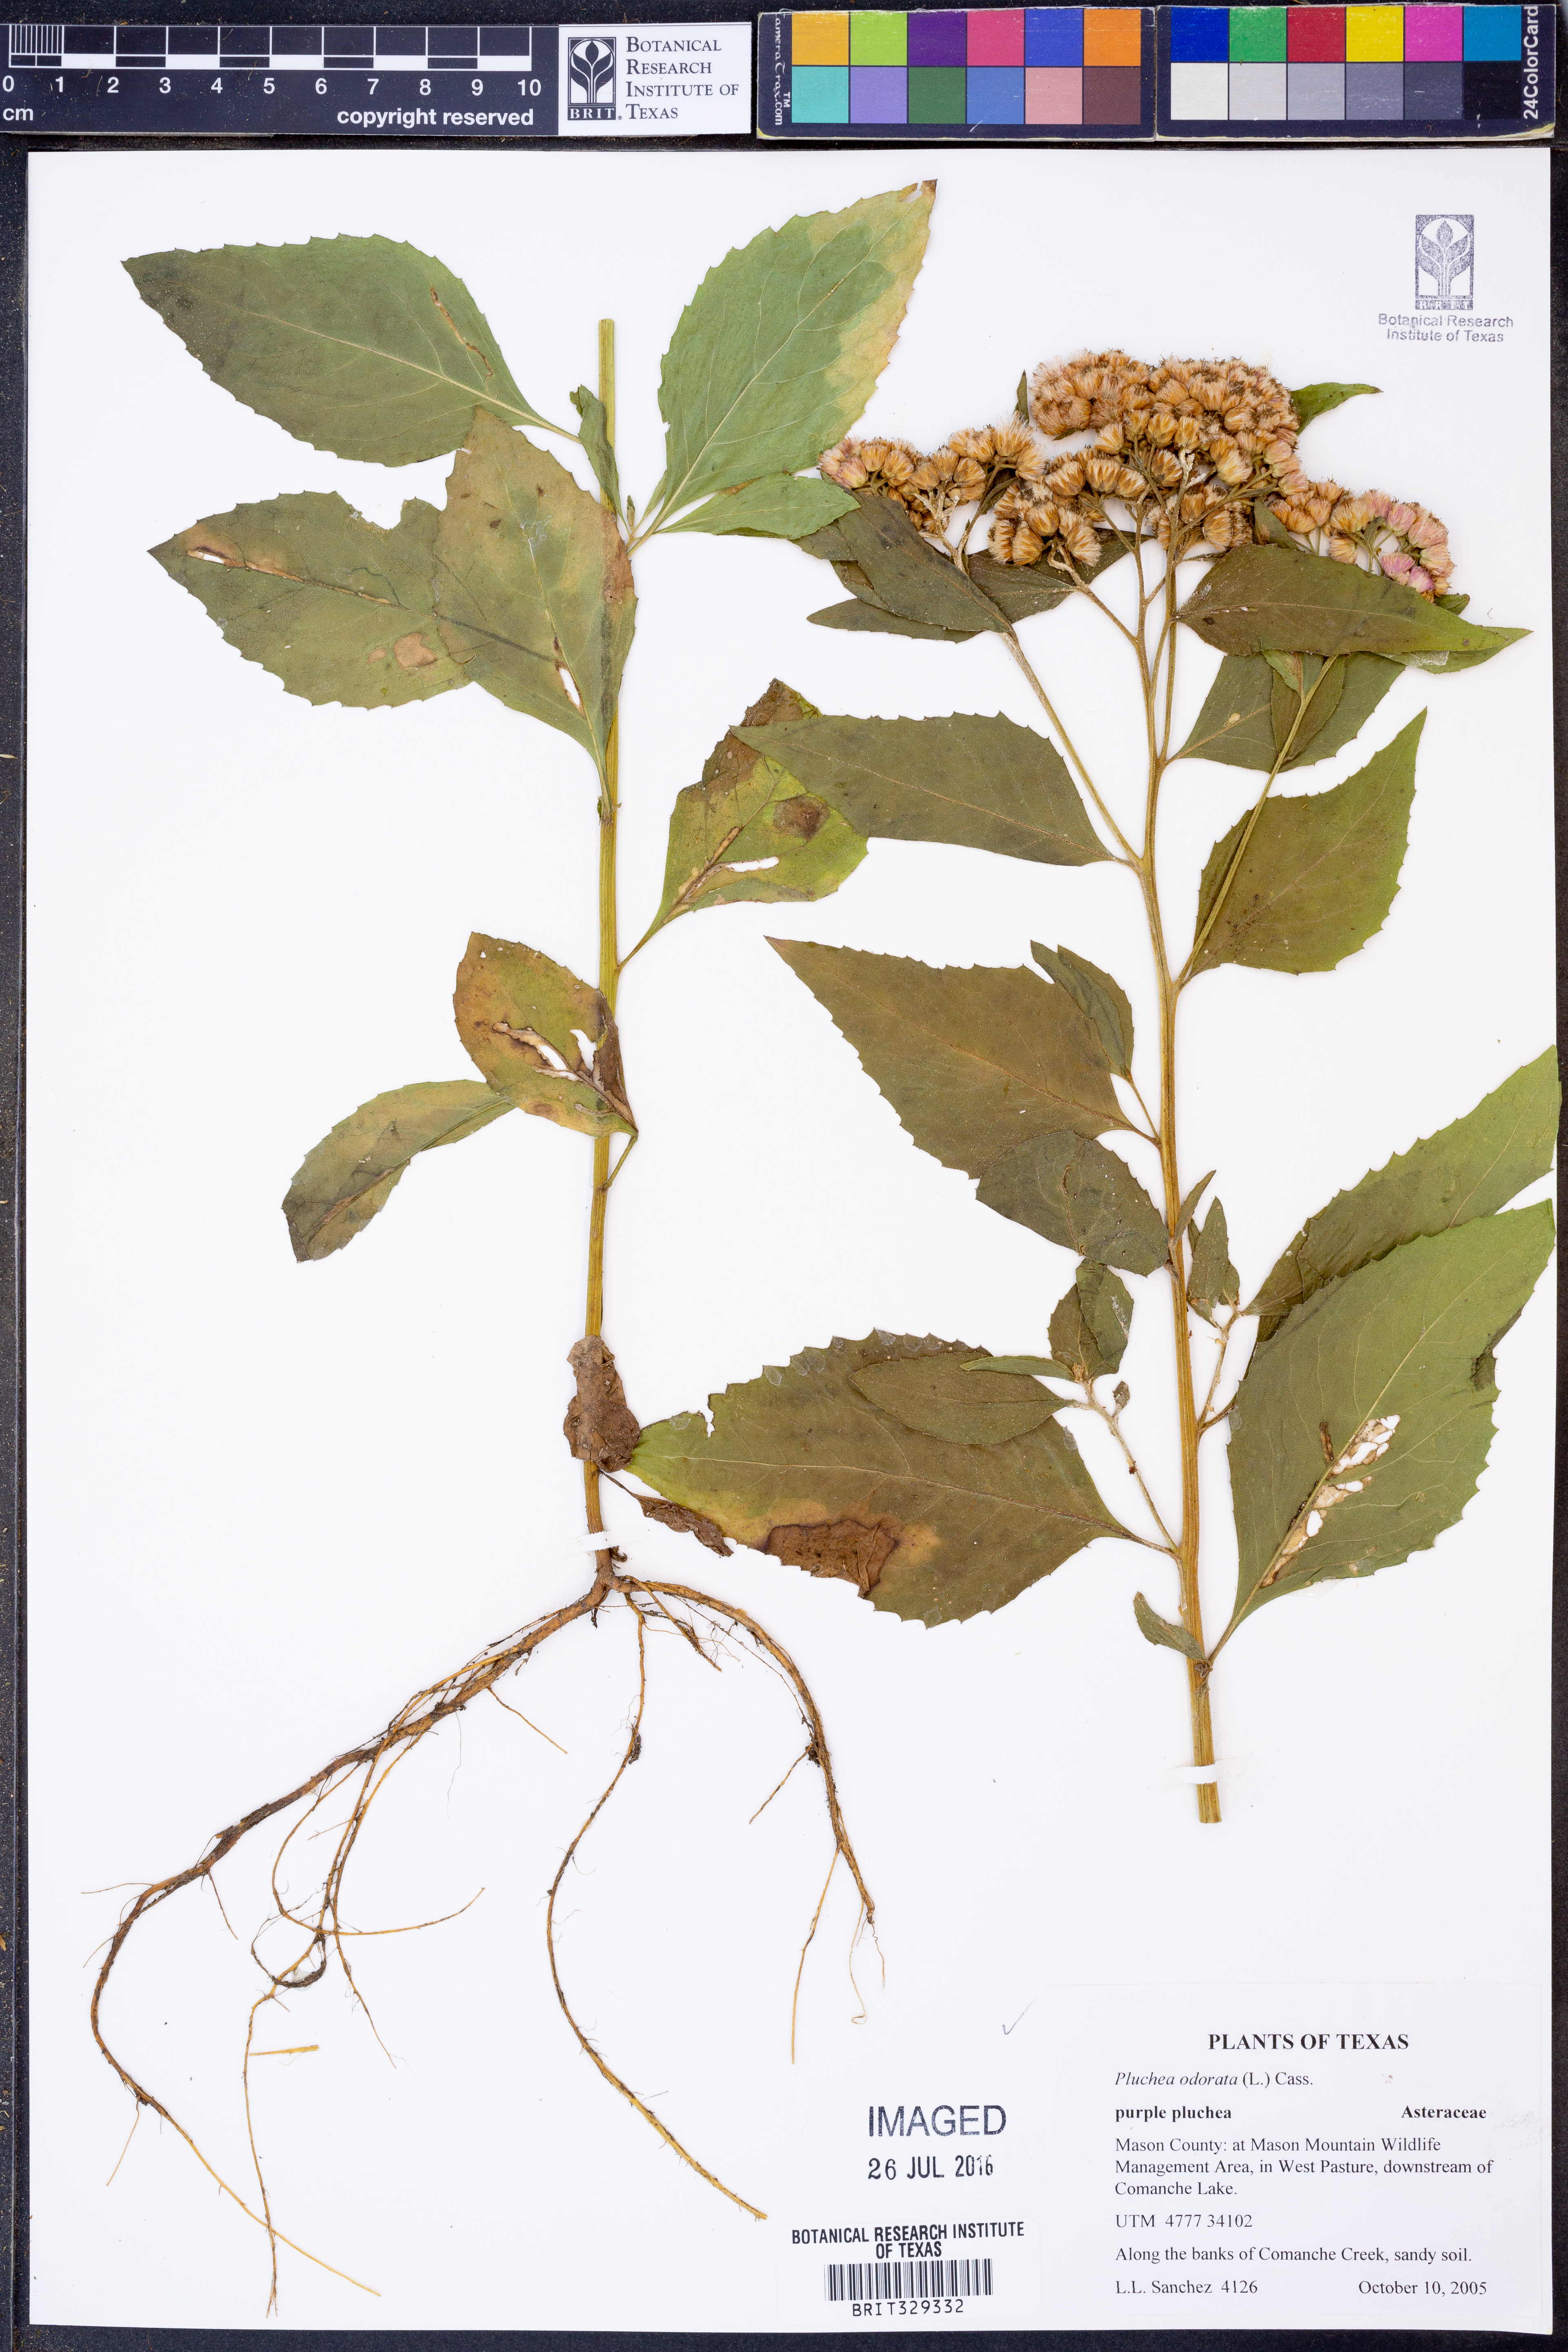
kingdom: Plantae
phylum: Tracheophyta
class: Magnoliopsida
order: Asterales
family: Asteraceae
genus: Pluchea
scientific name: Pluchea odorata
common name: Saltmarsh fleabane
